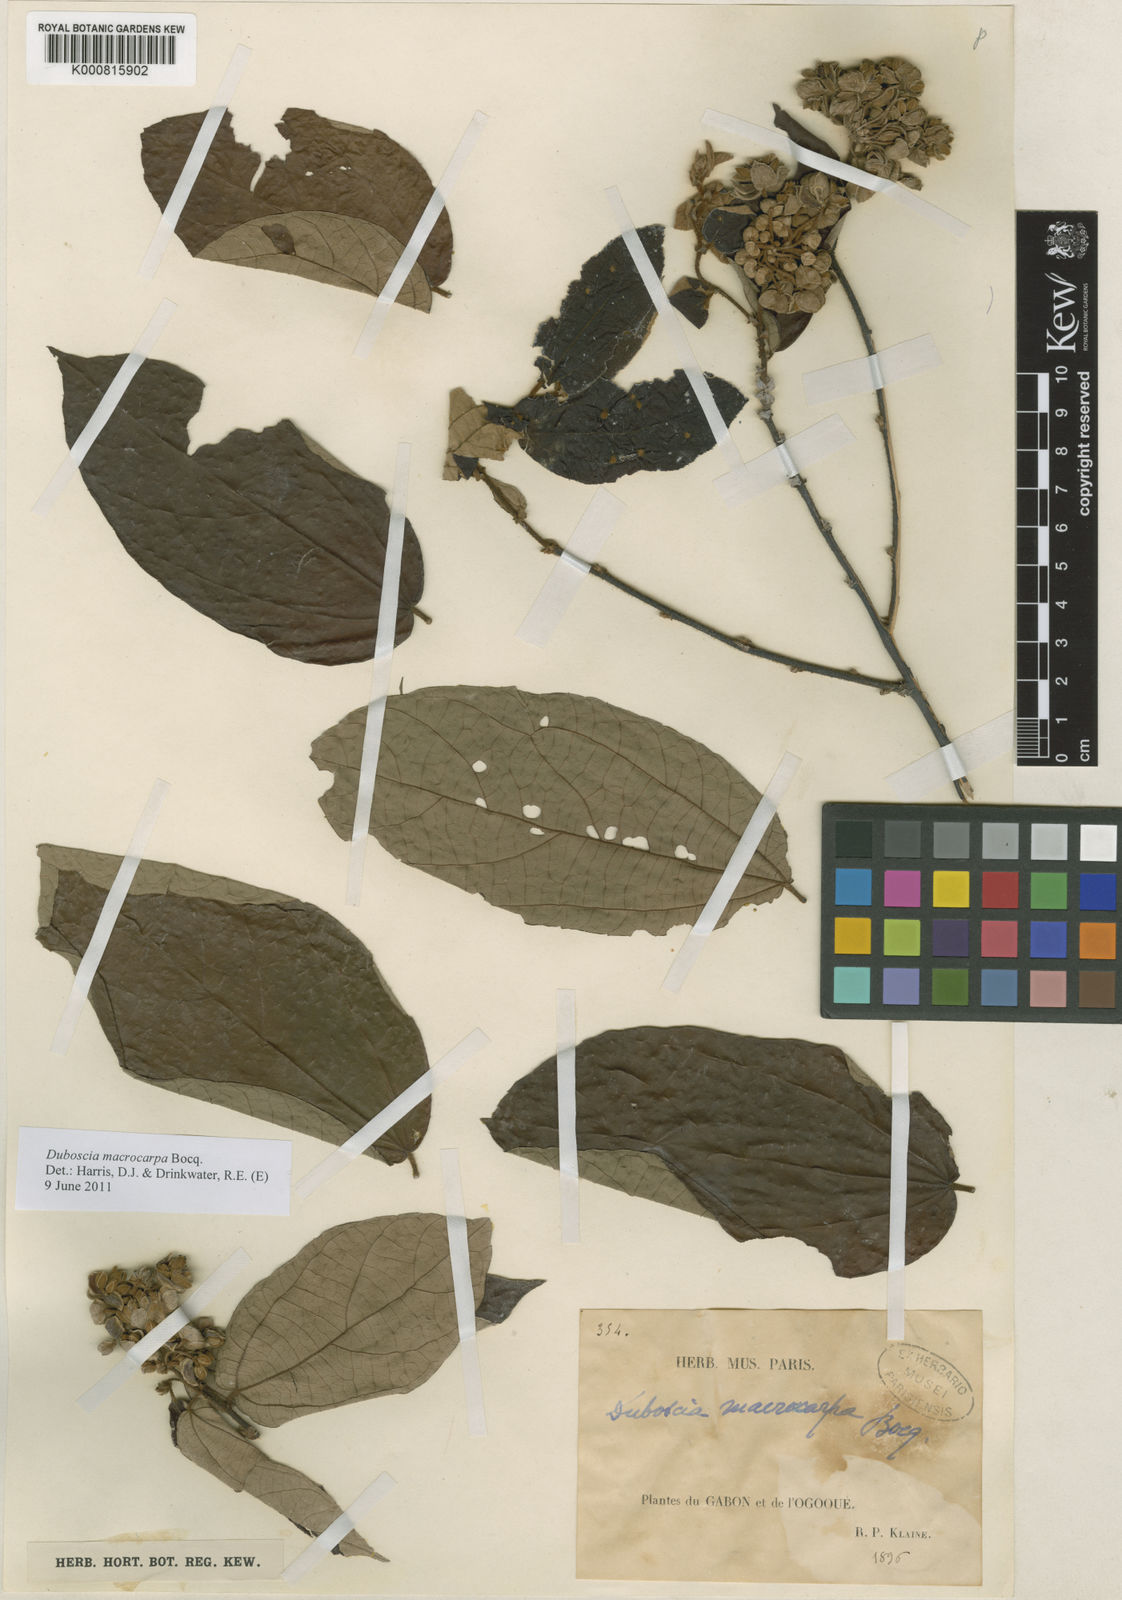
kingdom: Plantae
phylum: Tracheophyta
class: Magnoliopsida
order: Malvales
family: Malvaceae
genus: Duboscia
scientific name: Duboscia macrocarpa
